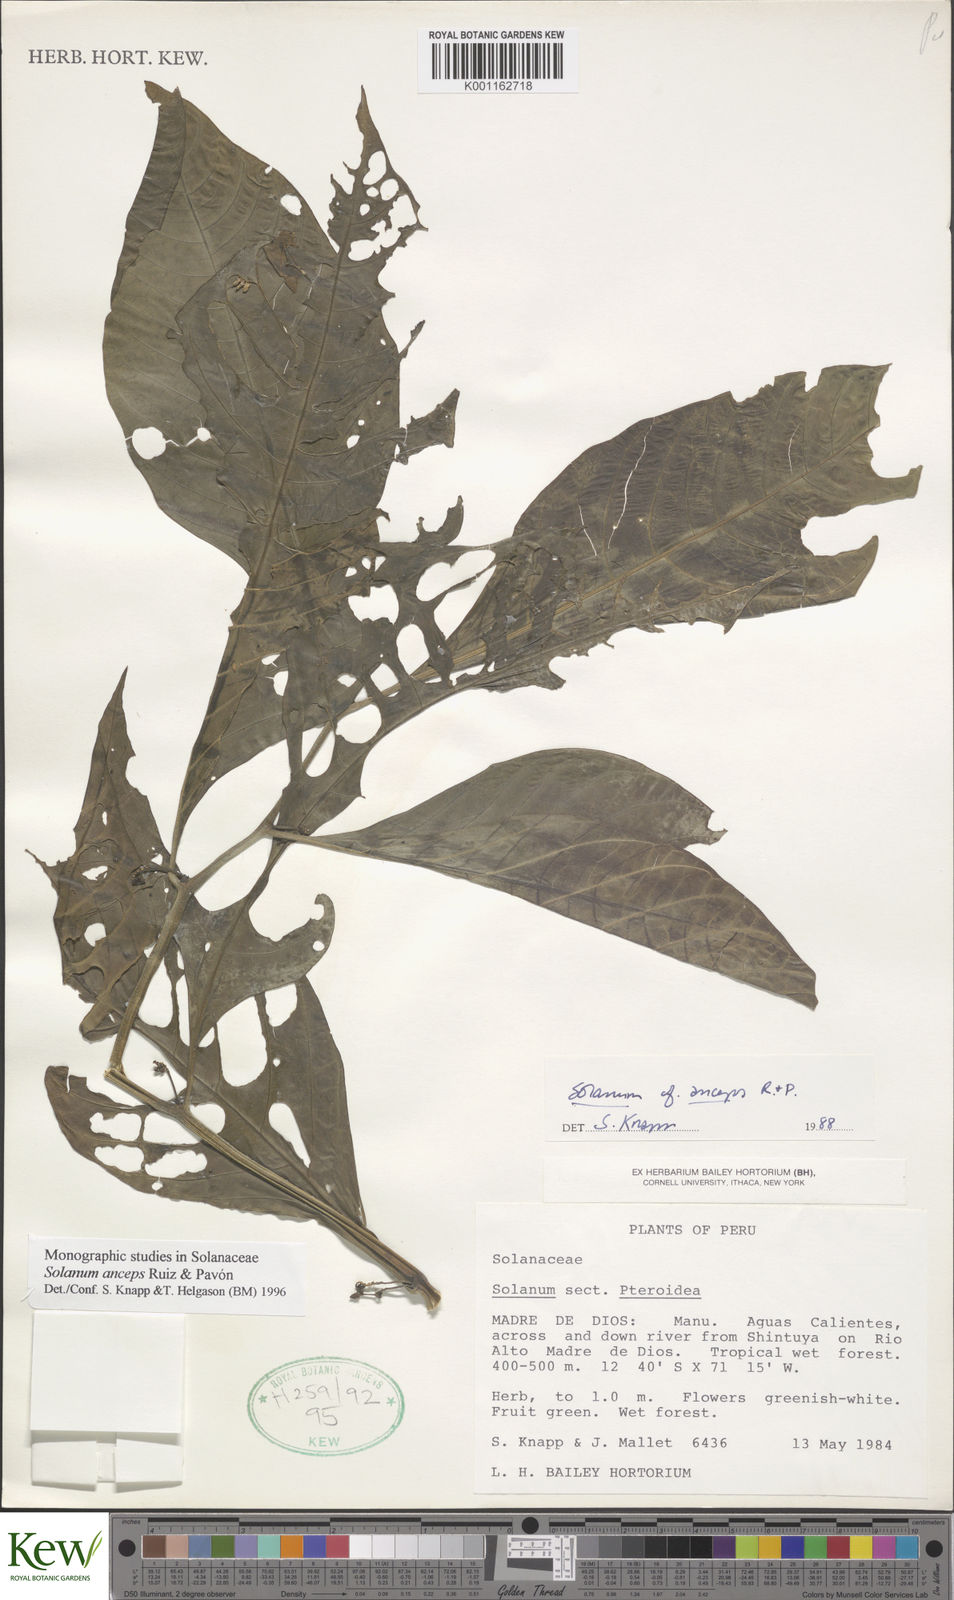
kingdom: Plantae
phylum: Tracheophyta
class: Magnoliopsida
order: Solanales
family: Solanaceae
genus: Solanum
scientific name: Solanum anceps
